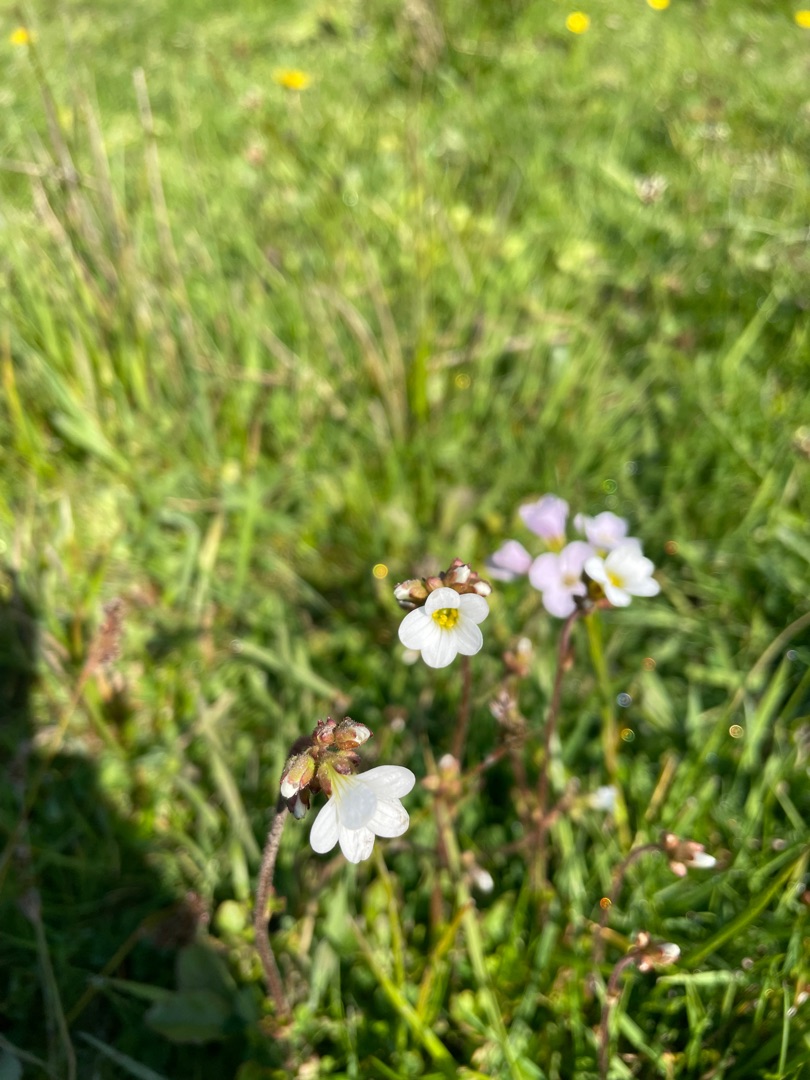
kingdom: Plantae
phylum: Tracheophyta
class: Magnoliopsida
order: Saxifragales
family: Saxifragaceae
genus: Saxifraga
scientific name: Saxifraga granulata
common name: Kornet stenbræk
